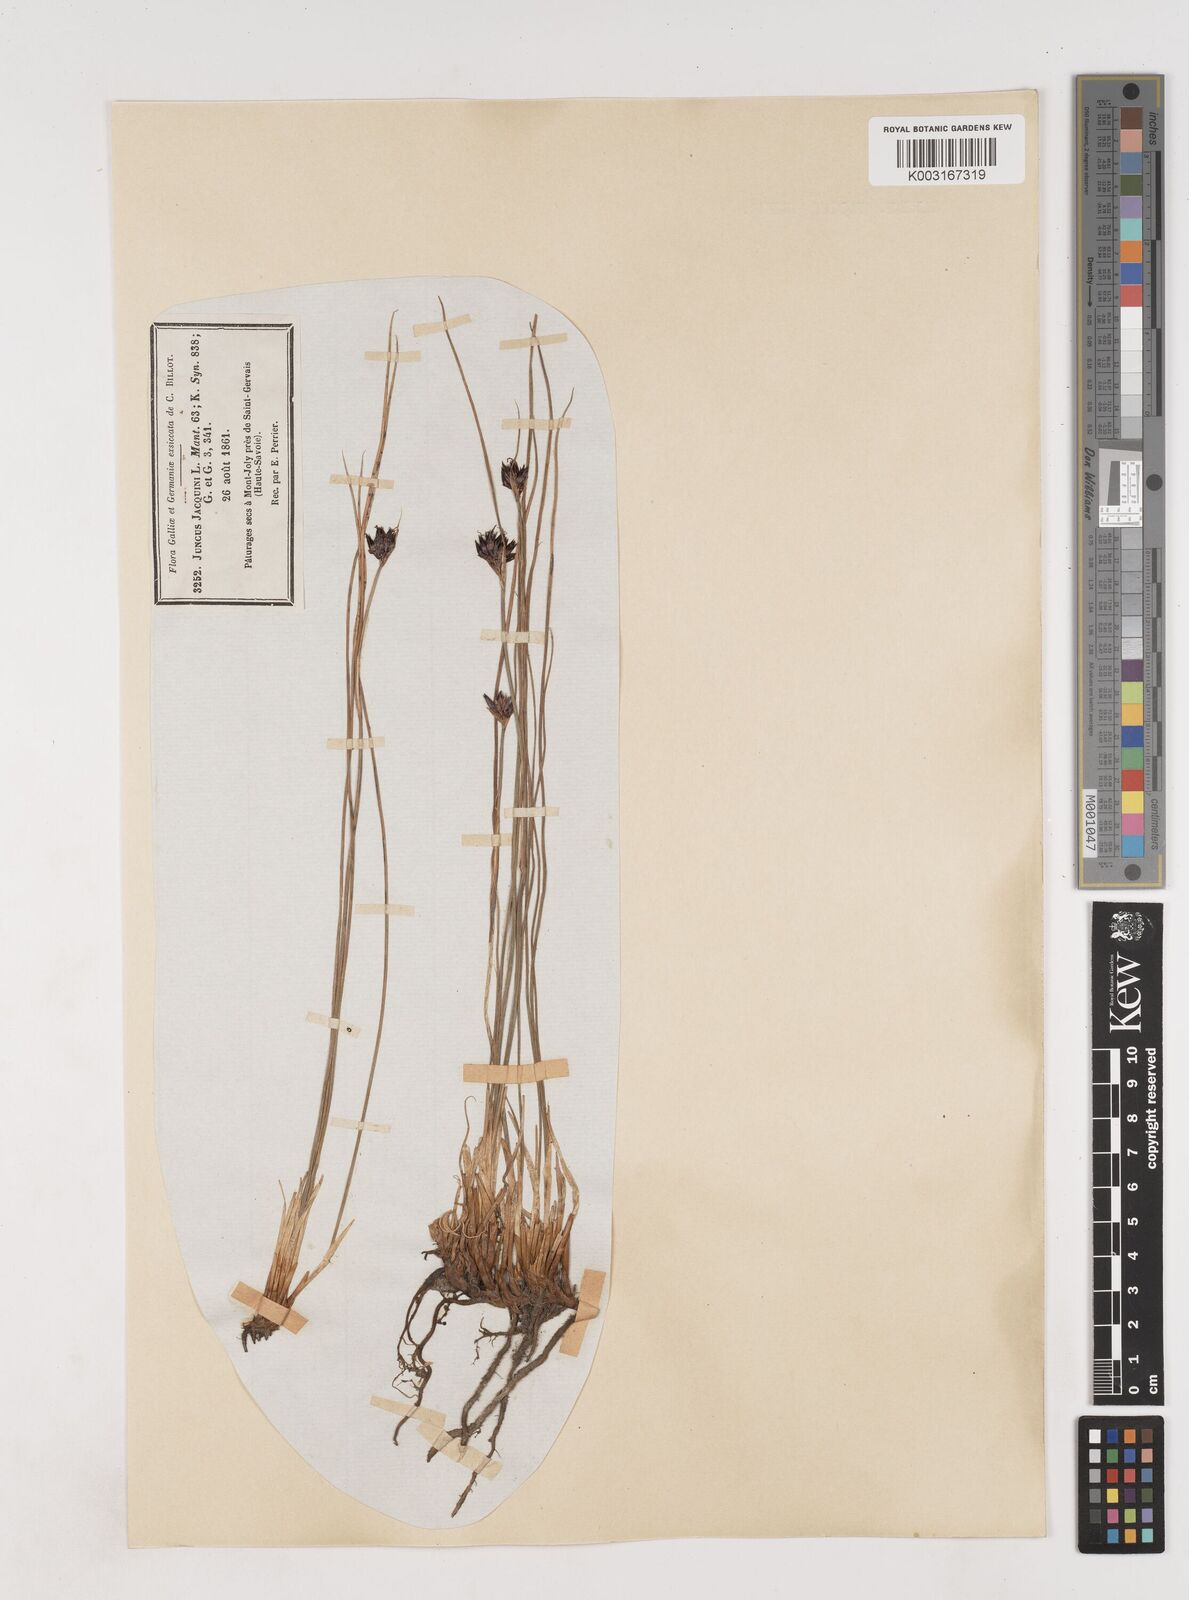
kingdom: Plantae
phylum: Tracheophyta
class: Liliopsida
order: Poales
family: Juncaceae
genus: Juncus
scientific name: Juncus jacquinii
